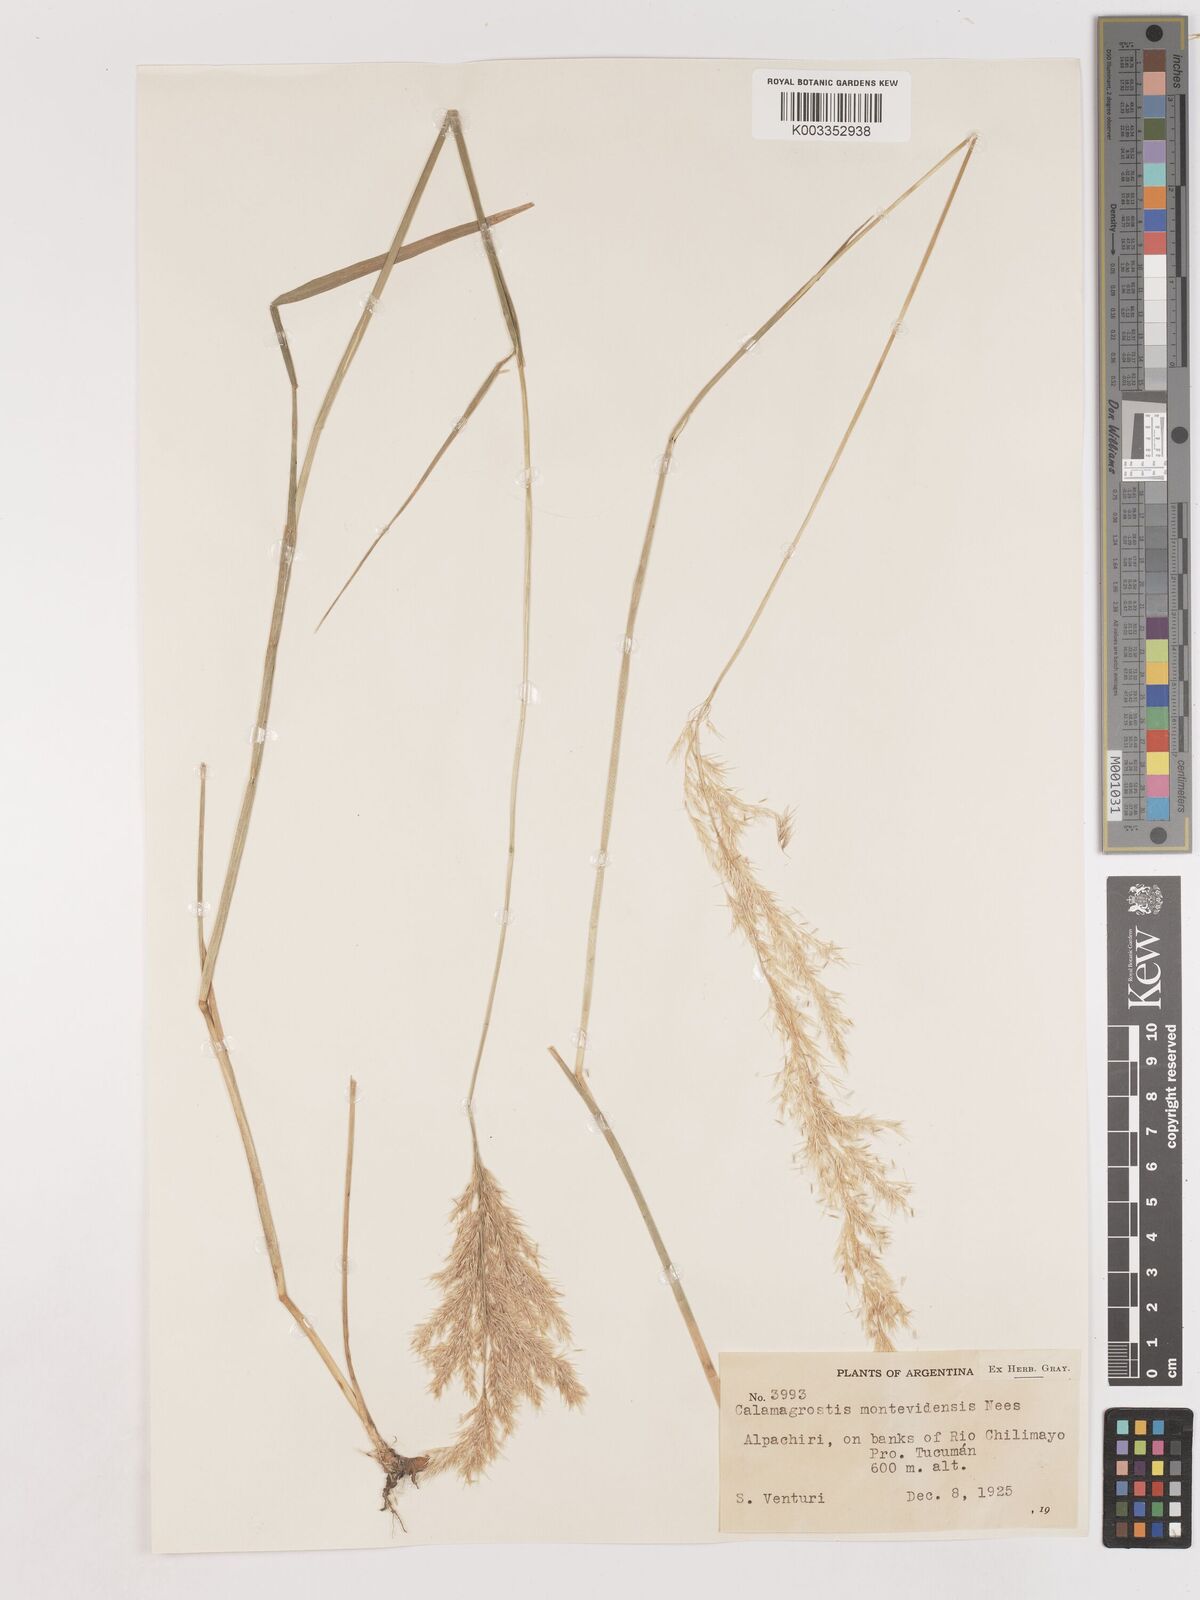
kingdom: Plantae
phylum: Tracheophyta
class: Liliopsida
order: Poales
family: Poaceae
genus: Cinnagrostis
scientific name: Cinnagrostis viridiflavescens
